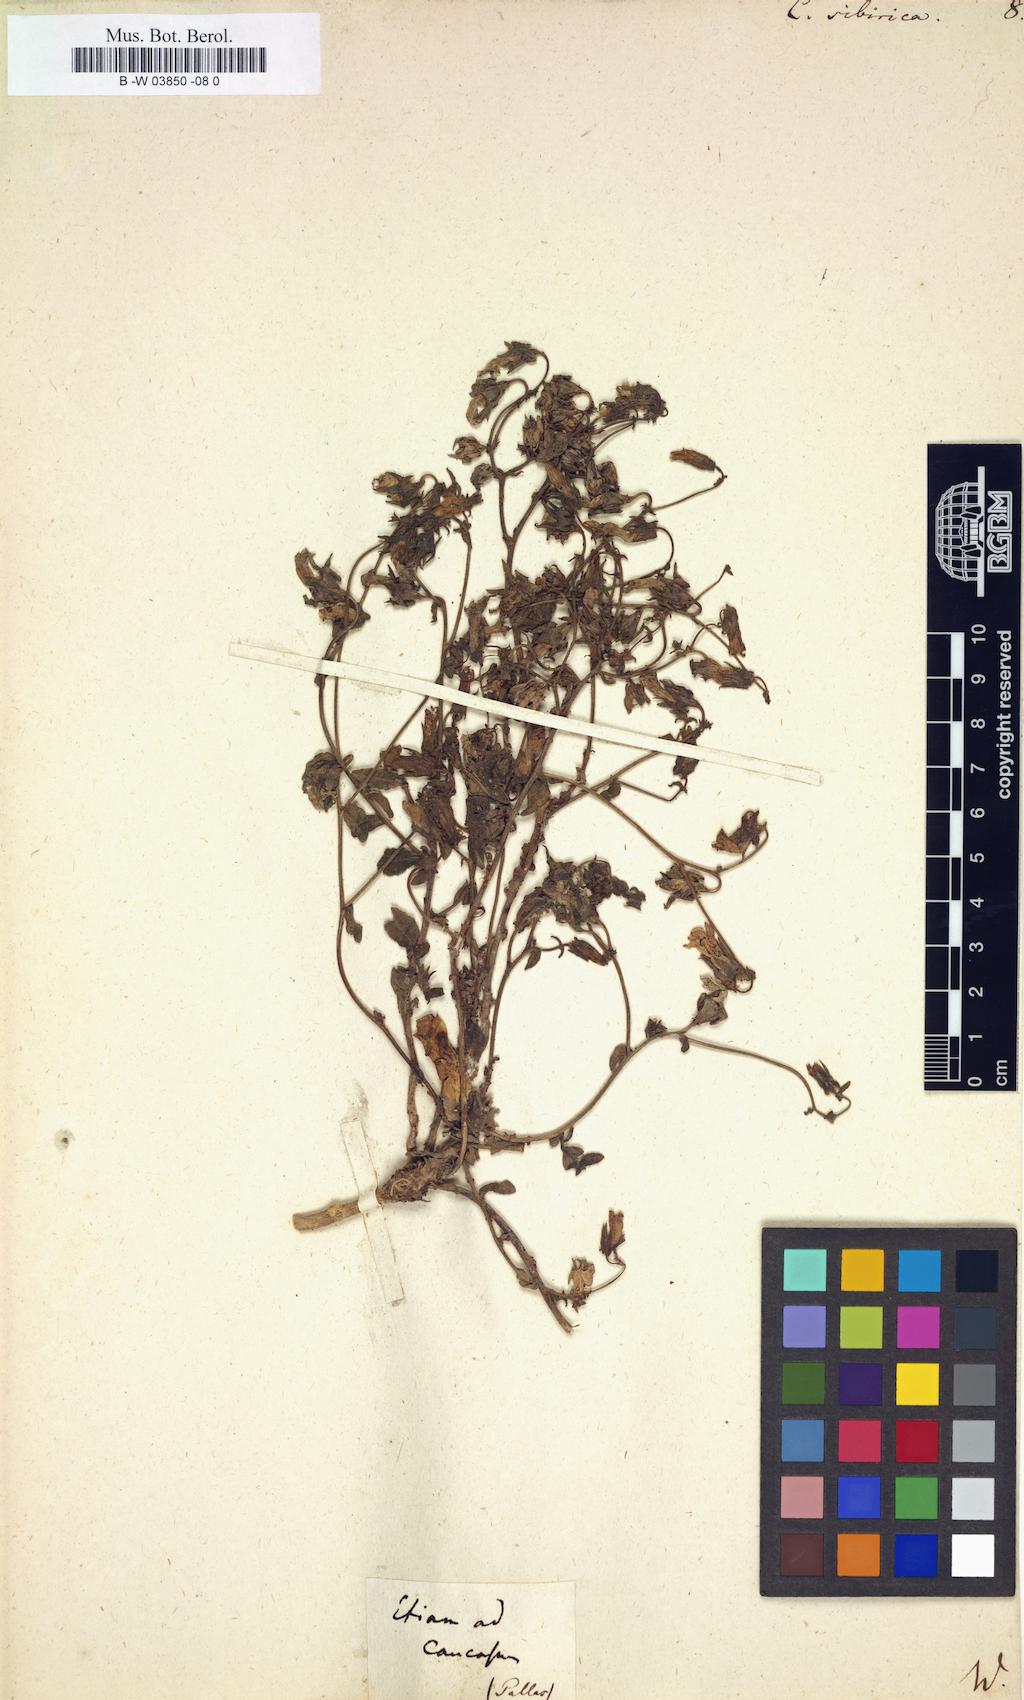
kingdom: Plantae
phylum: Tracheophyta
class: Magnoliopsida
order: Asterales
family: Campanulaceae
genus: Campanula
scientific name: Campanula sibirica
